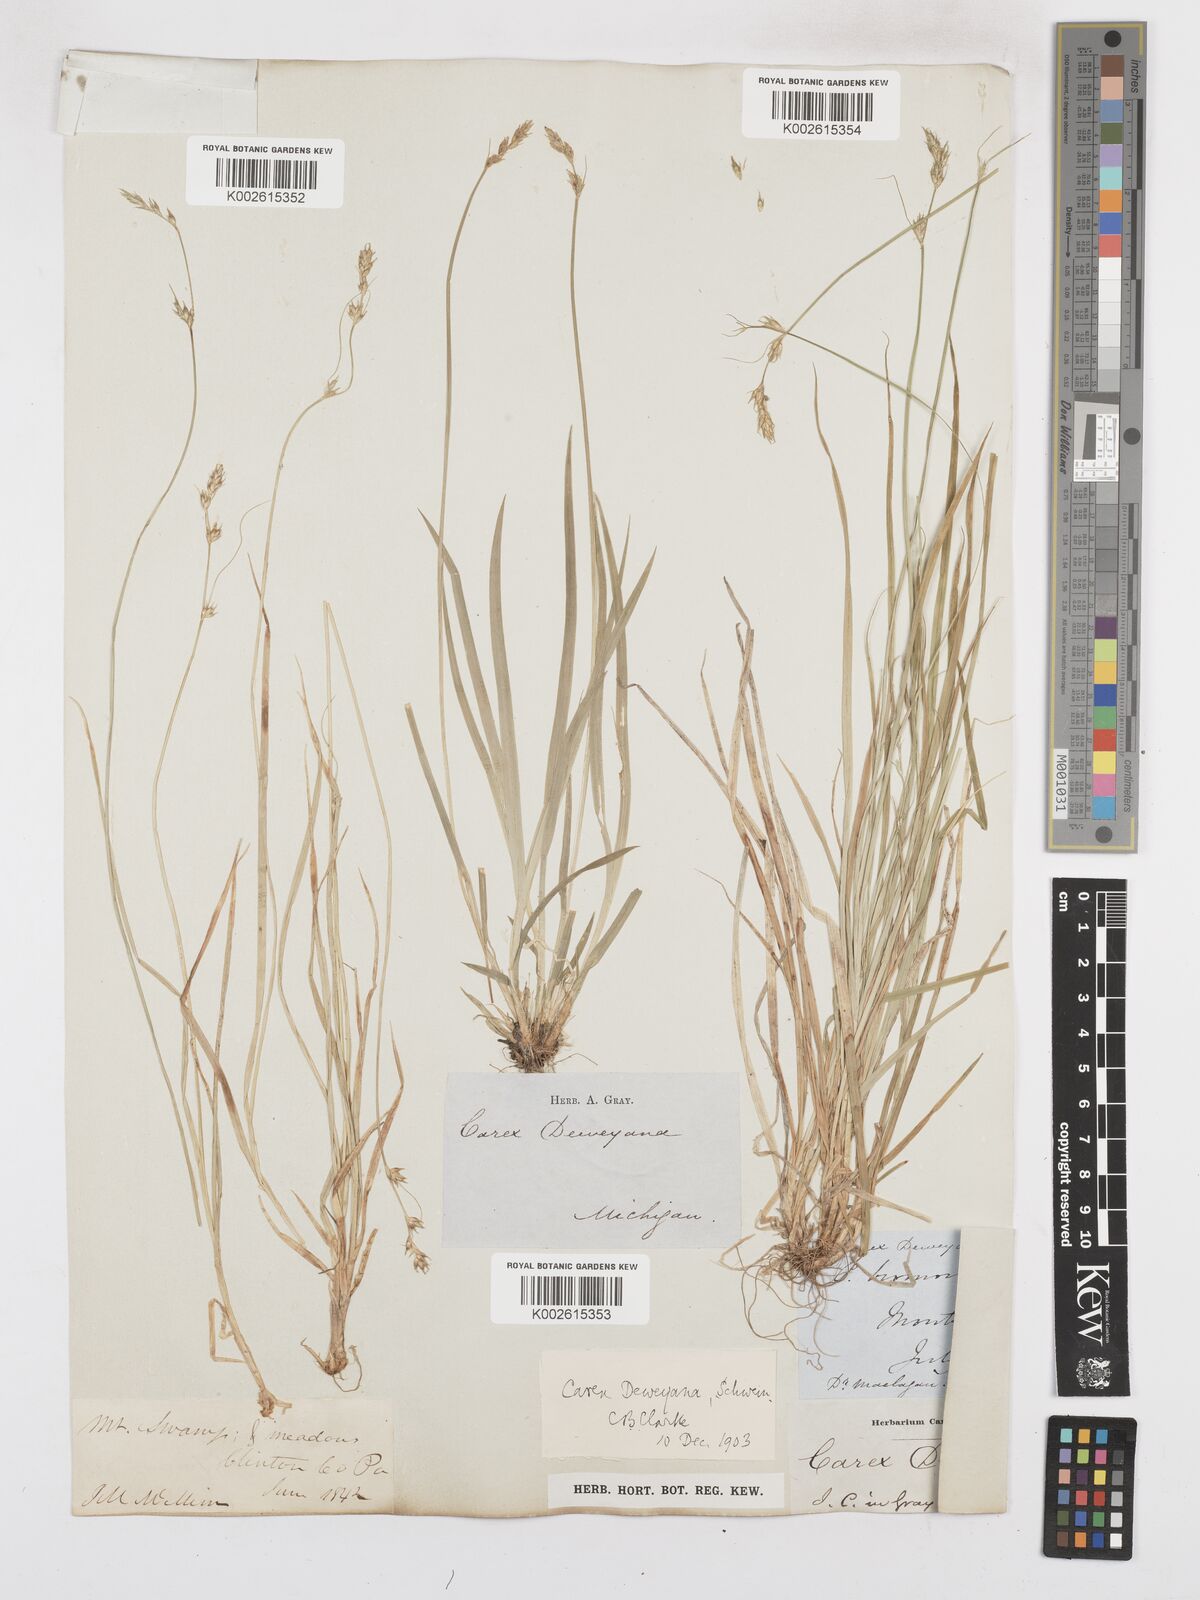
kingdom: Plantae
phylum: Tracheophyta
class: Liliopsida
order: Poales
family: Cyperaceae
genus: Carex
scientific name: Carex deweyana
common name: Dewey's sedge
